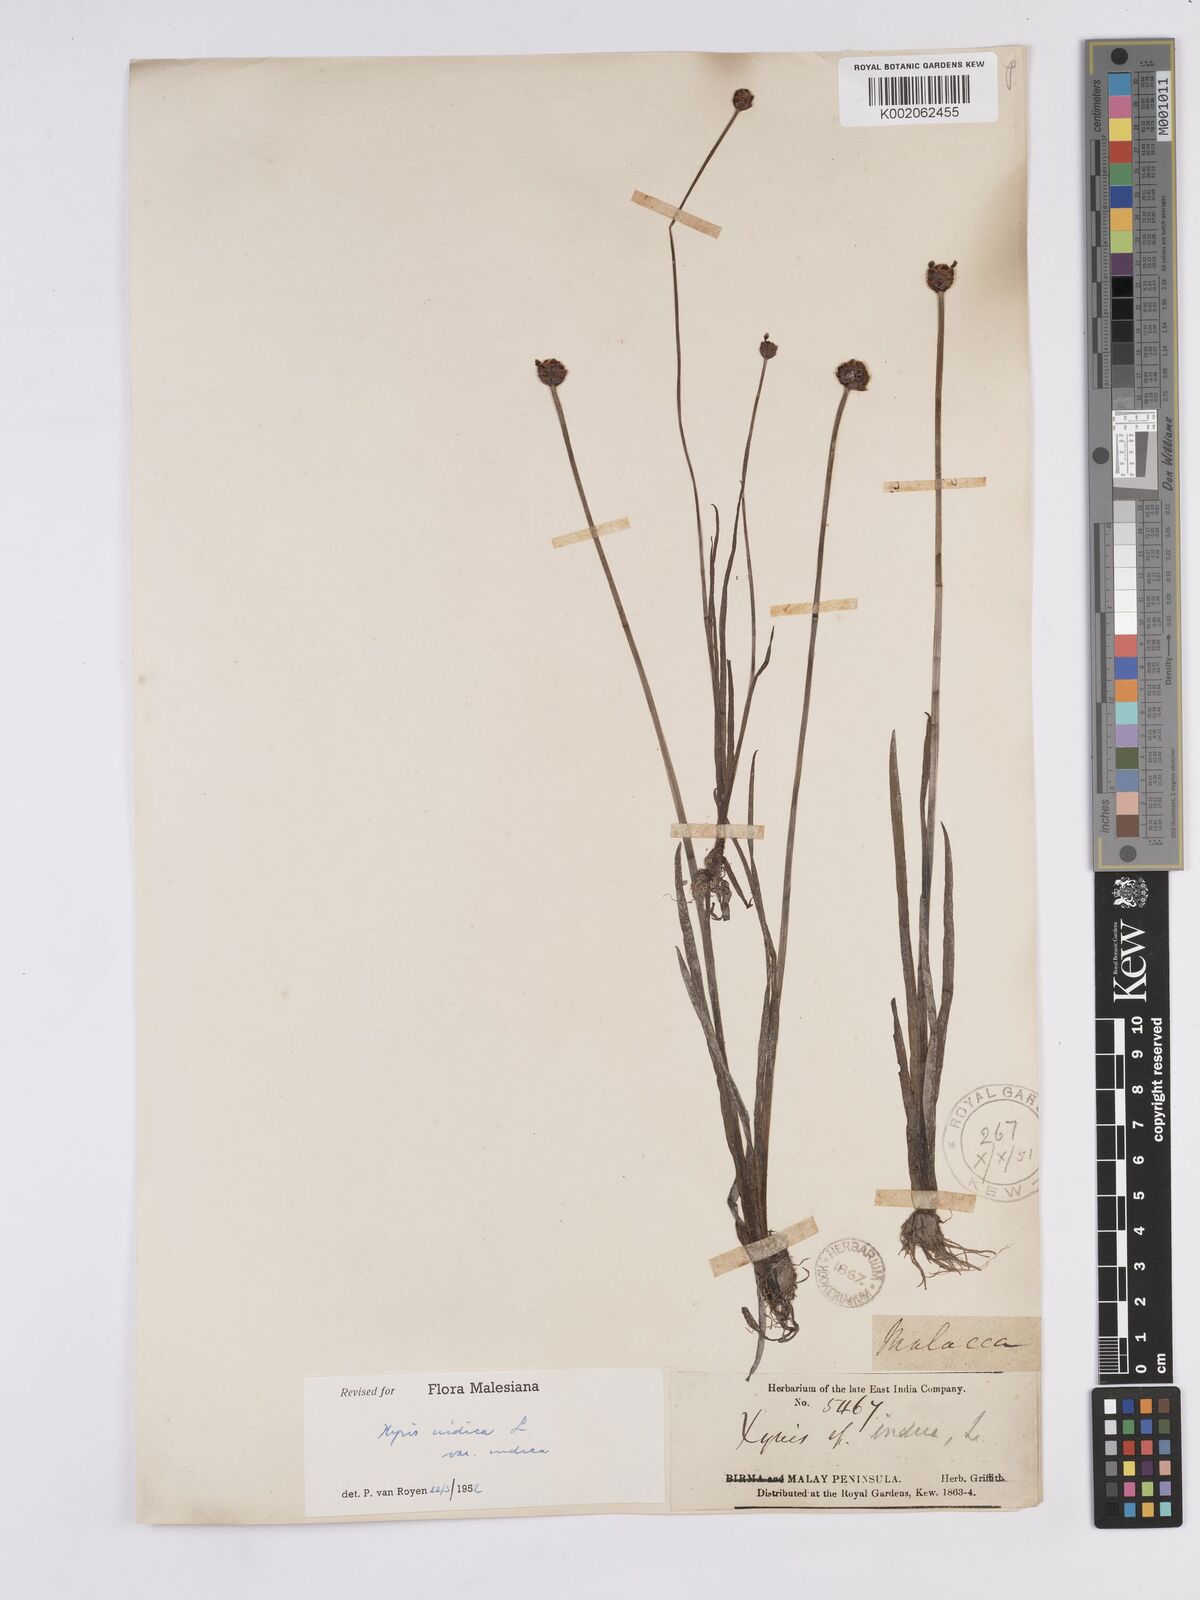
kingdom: Plantae
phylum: Tracheophyta
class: Liliopsida
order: Poales
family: Xyridaceae
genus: Xyris
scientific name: Xyris indica
